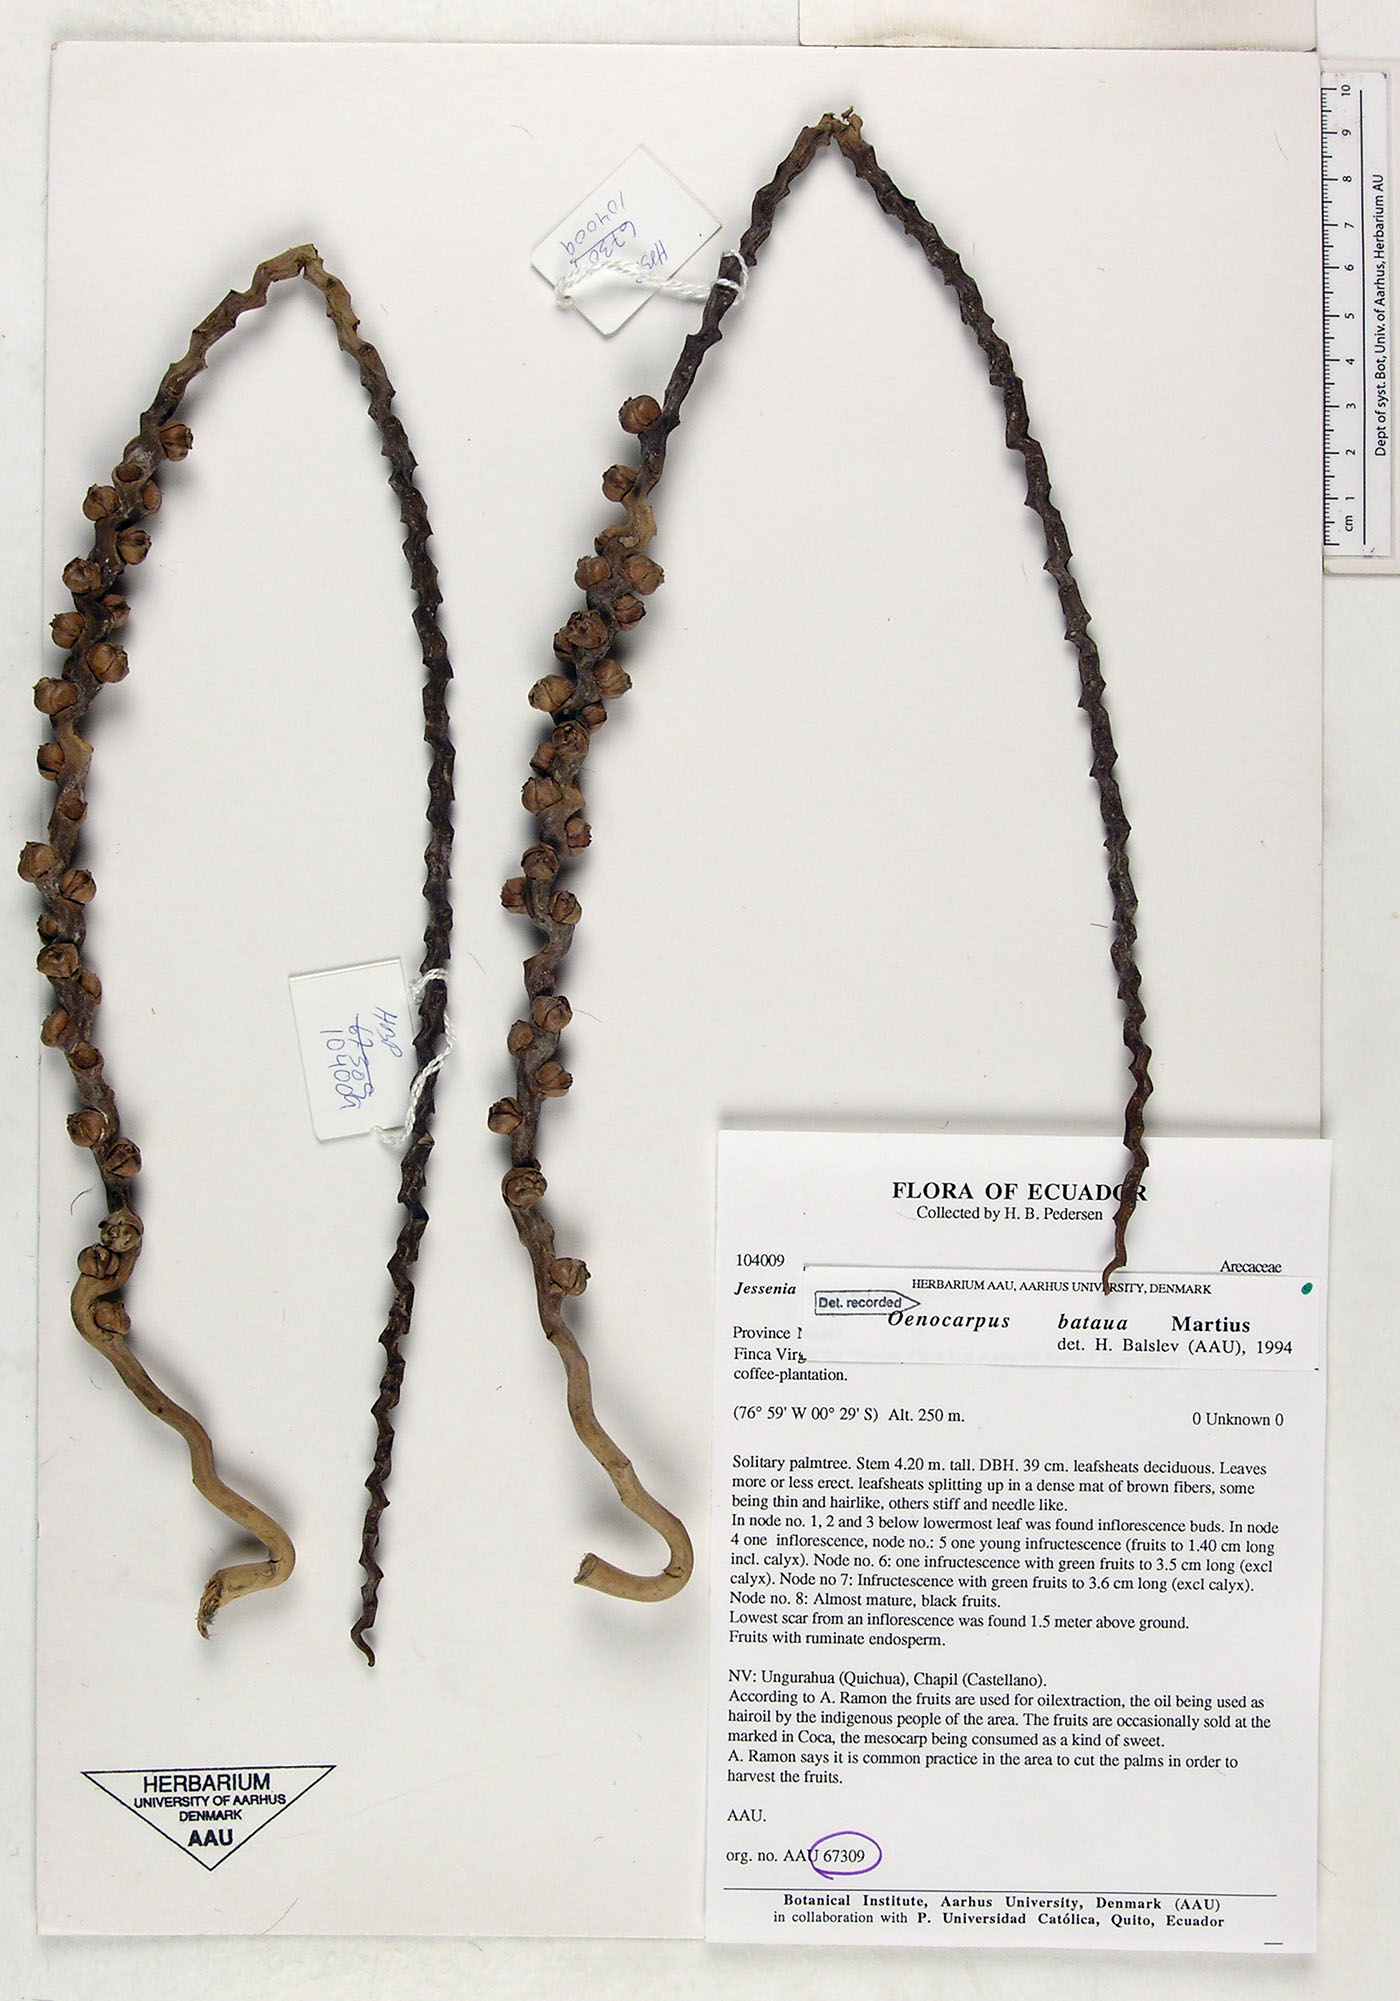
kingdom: Plantae
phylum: Tracheophyta
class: Liliopsida
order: Arecales
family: Arecaceae
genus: Oenocarpus
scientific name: Oenocarpus bataua
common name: Bataua palm
